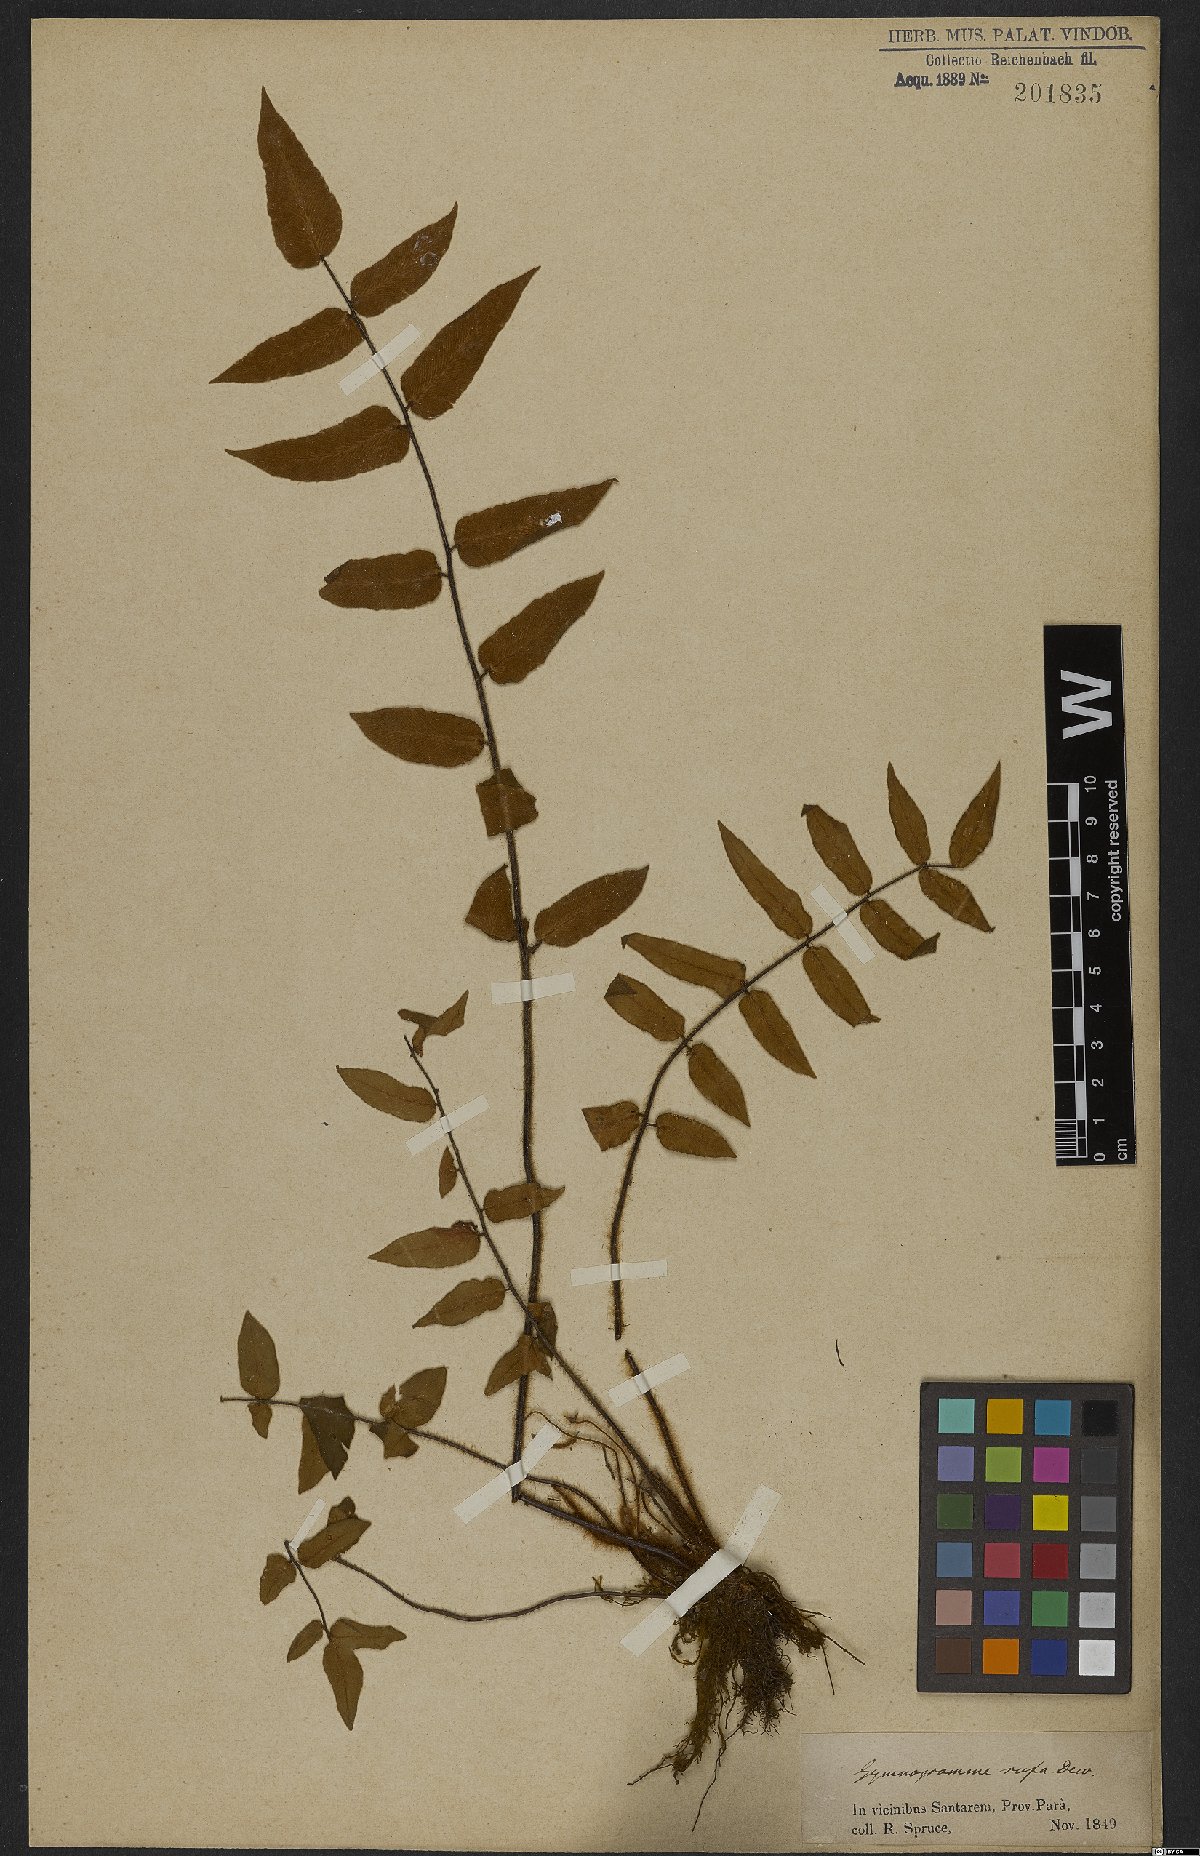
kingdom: Plantae
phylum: Tracheophyta
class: Polypodiopsida
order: Polypodiales
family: Pteridaceae
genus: Hemionitis
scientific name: Hemionitis rufa
